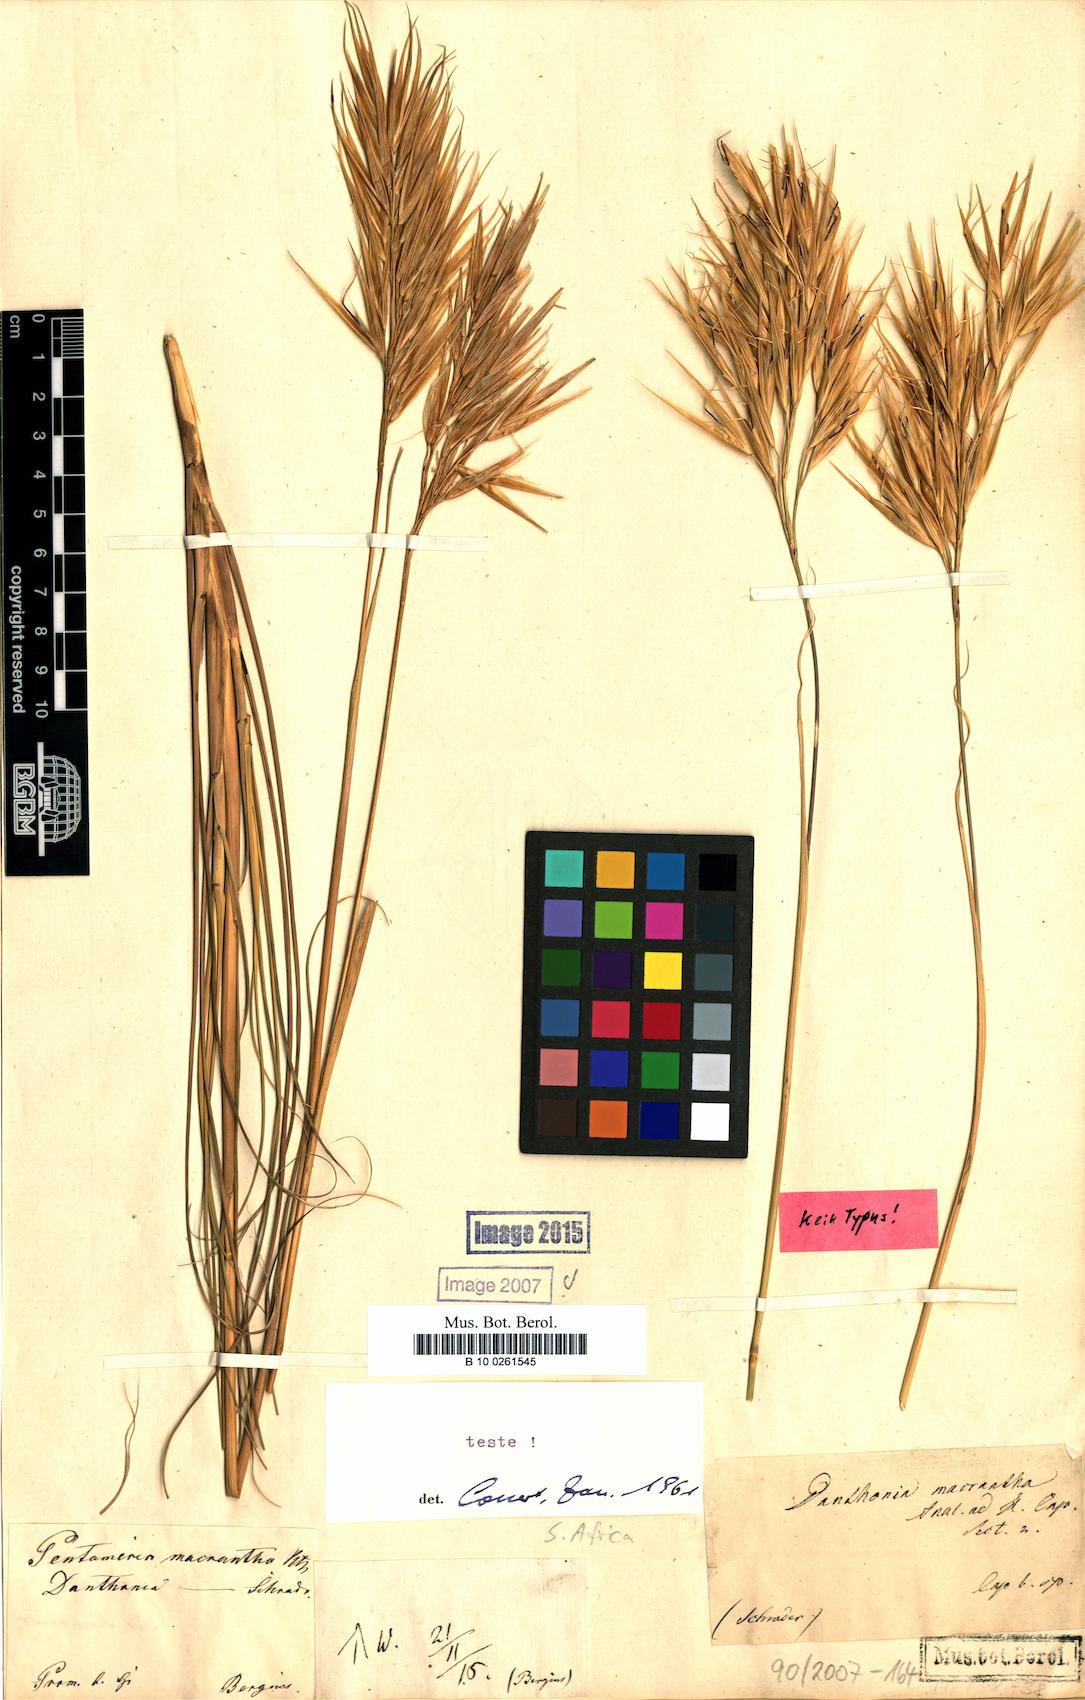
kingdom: Plantae
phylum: Tracheophyta
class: Liliopsida
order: Poales
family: Poaceae
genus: Tenaxia
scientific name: Tenaxia disticha
